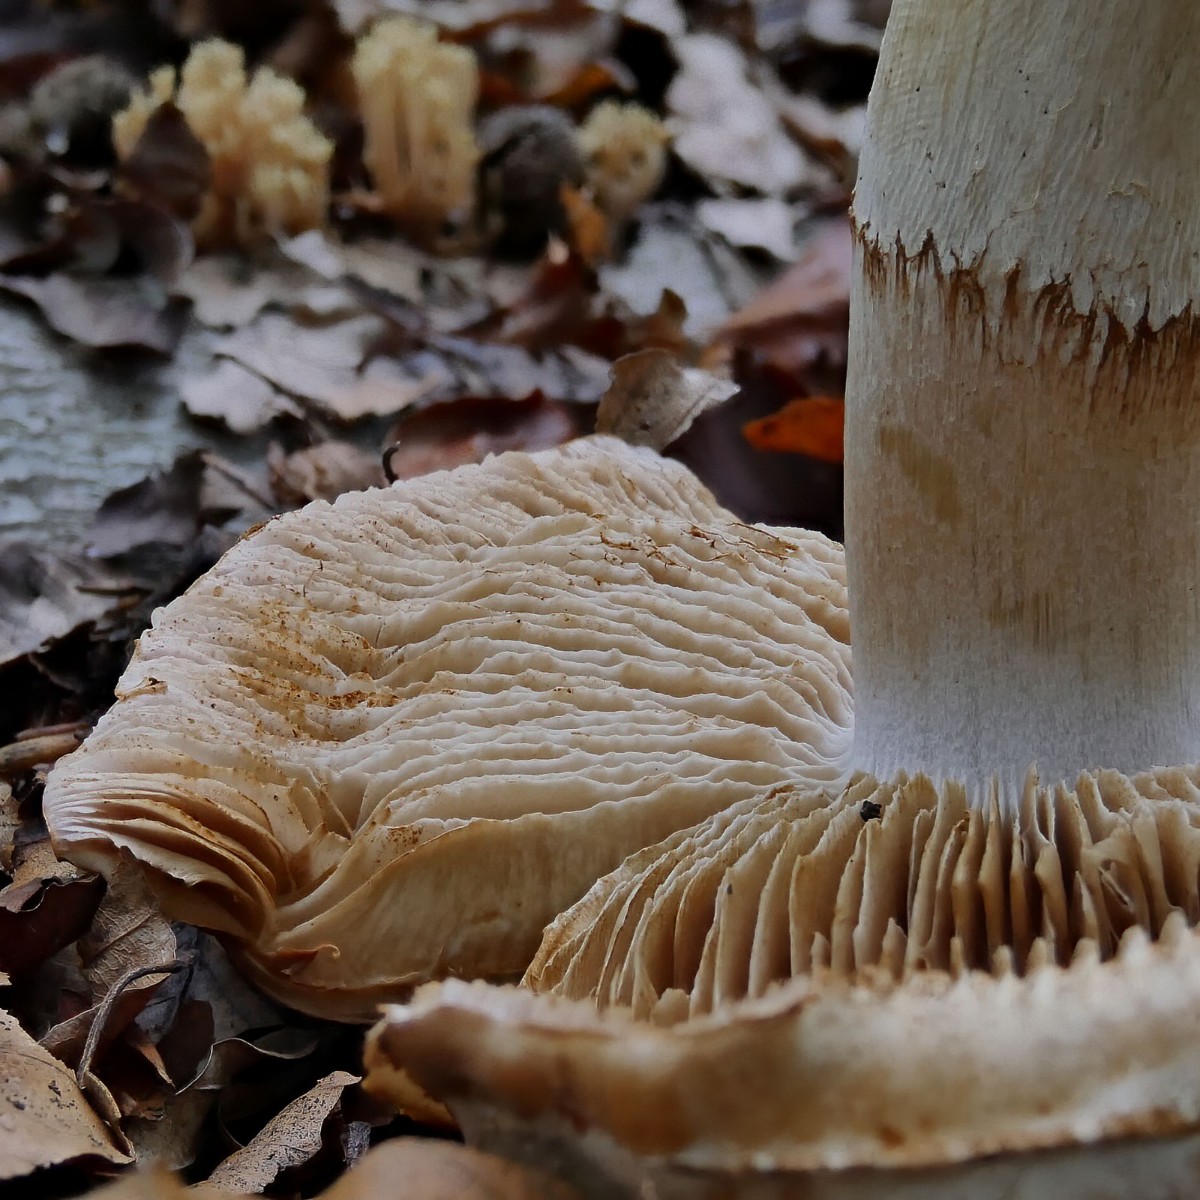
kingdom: Fungi
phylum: Basidiomycota
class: Agaricomycetes
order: Agaricales
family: Cortinariaceae
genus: Phlegmacium
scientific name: Phlegmacium vulpinum
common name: ringbæltet slørhat
